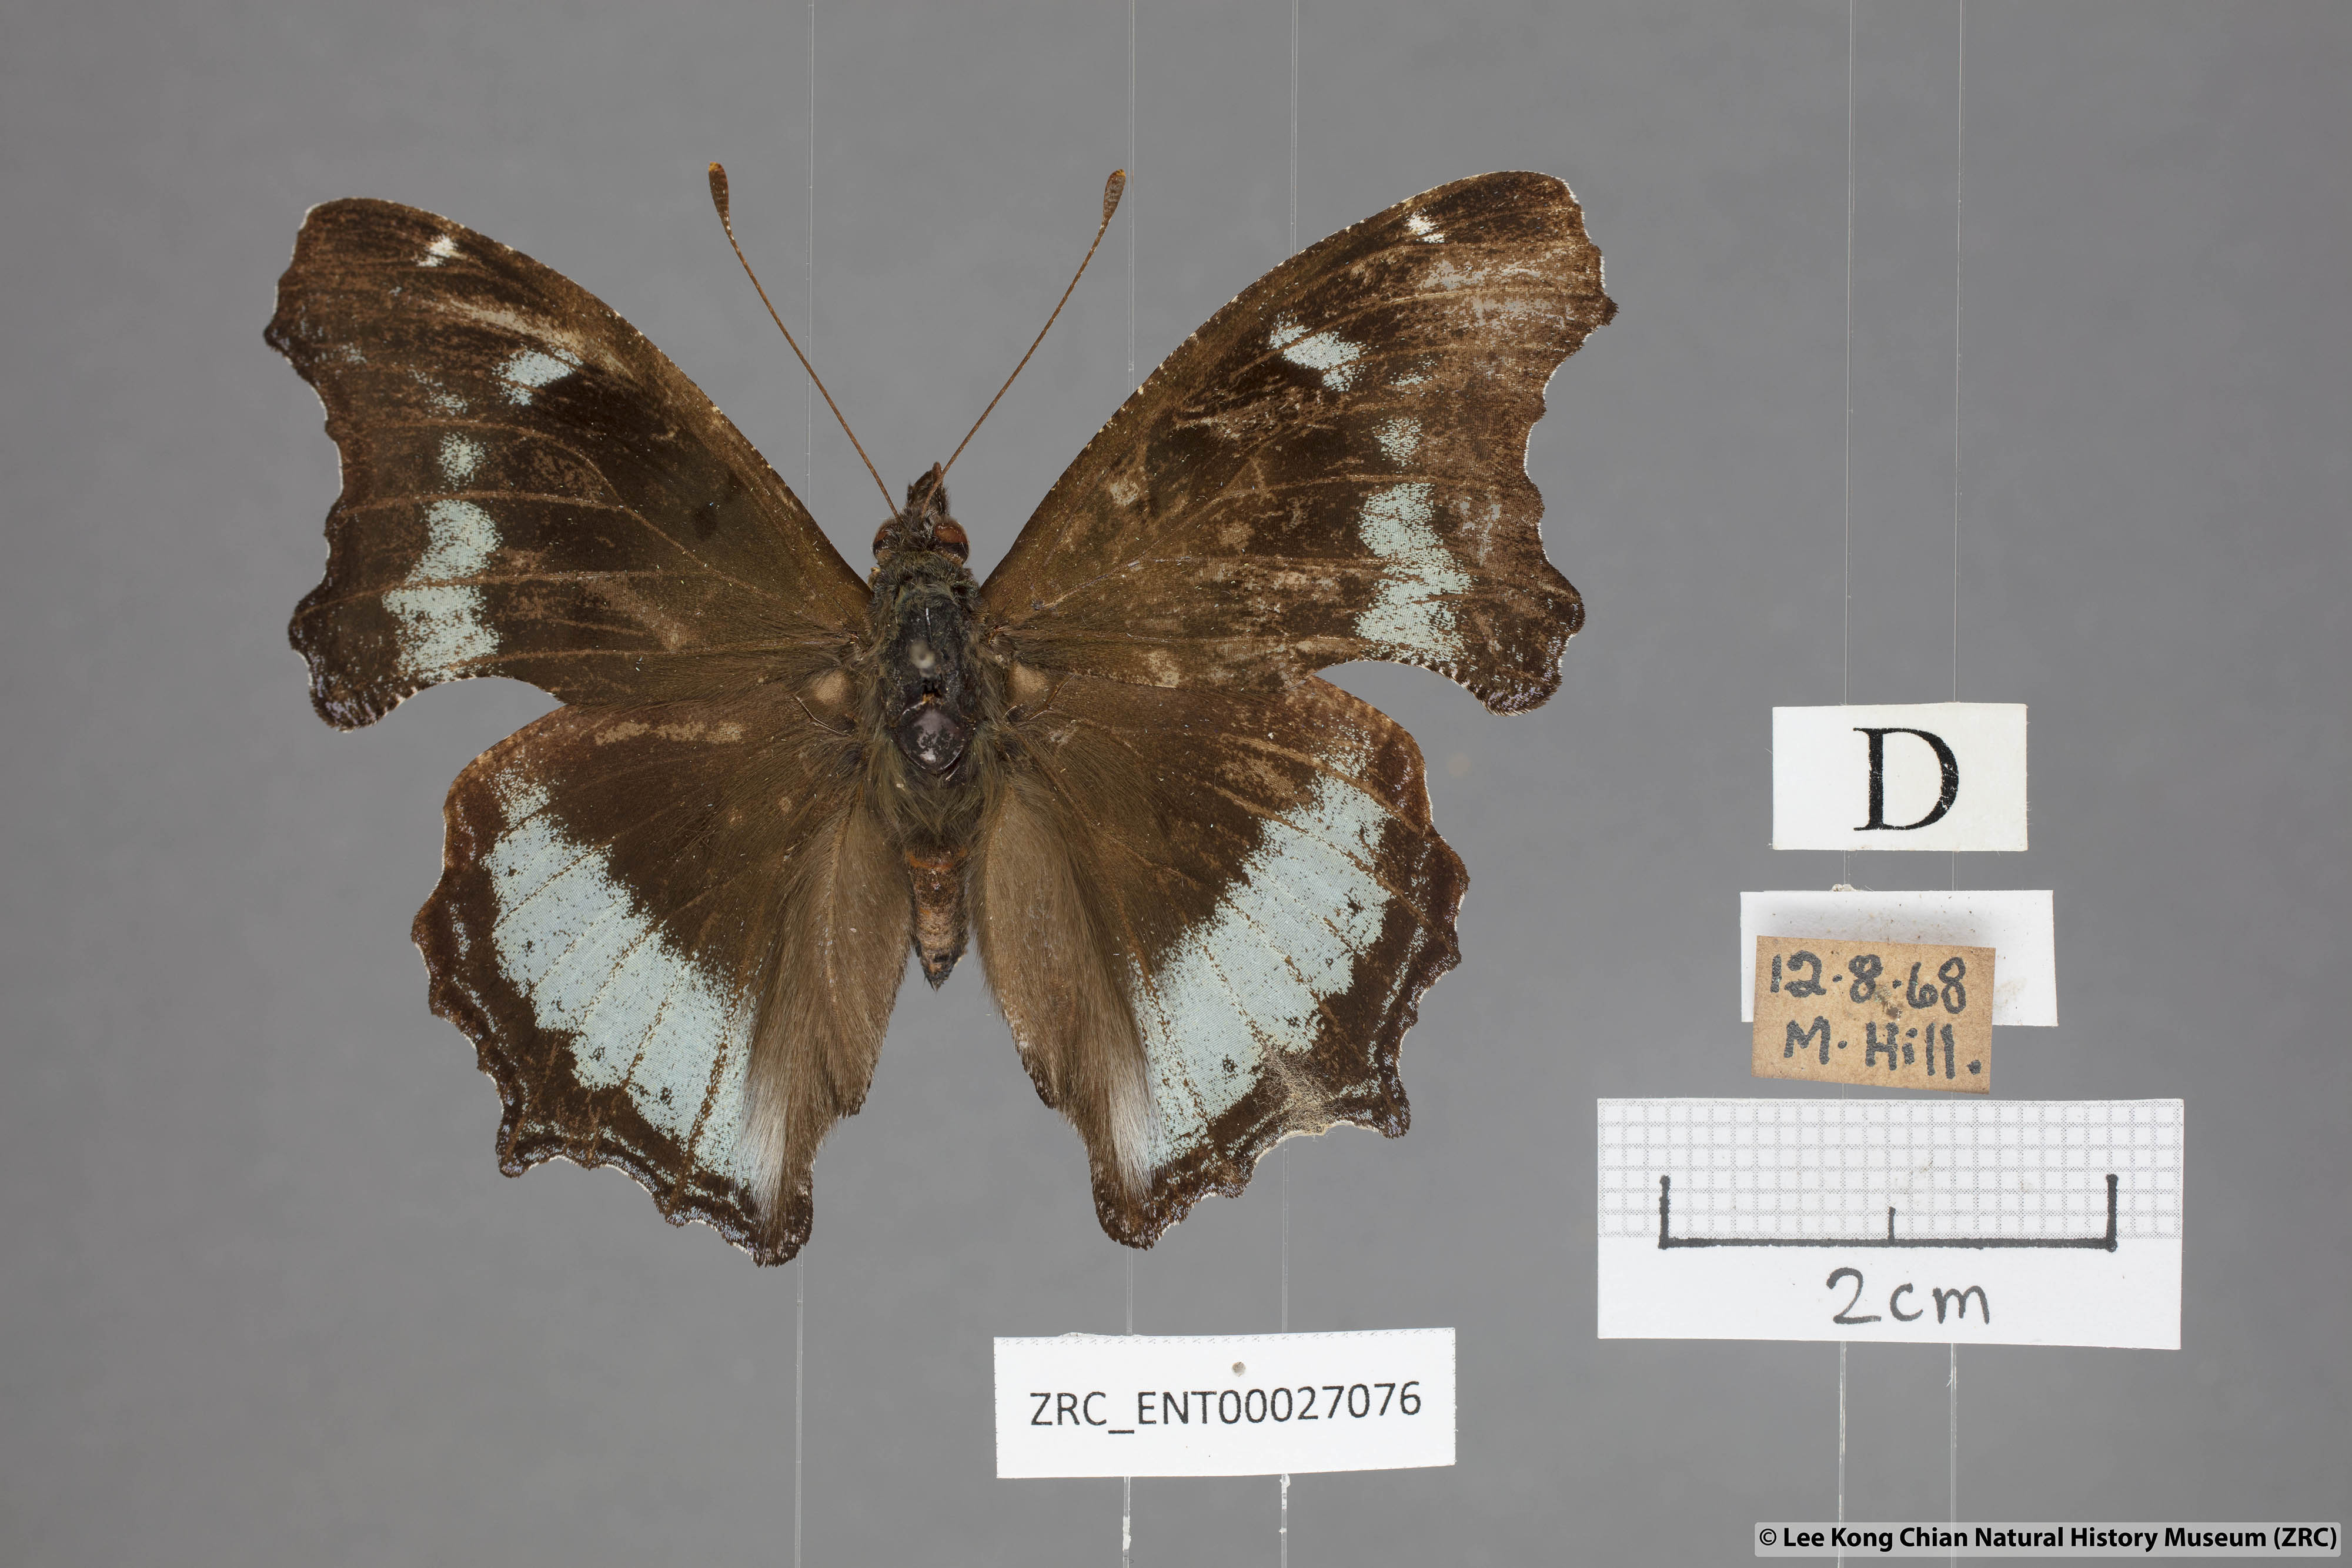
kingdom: Animalia
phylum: Arthropoda
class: Insecta
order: Lepidoptera
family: Nymphalidae
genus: Vanessa
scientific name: Vanessa Kaniska canace
